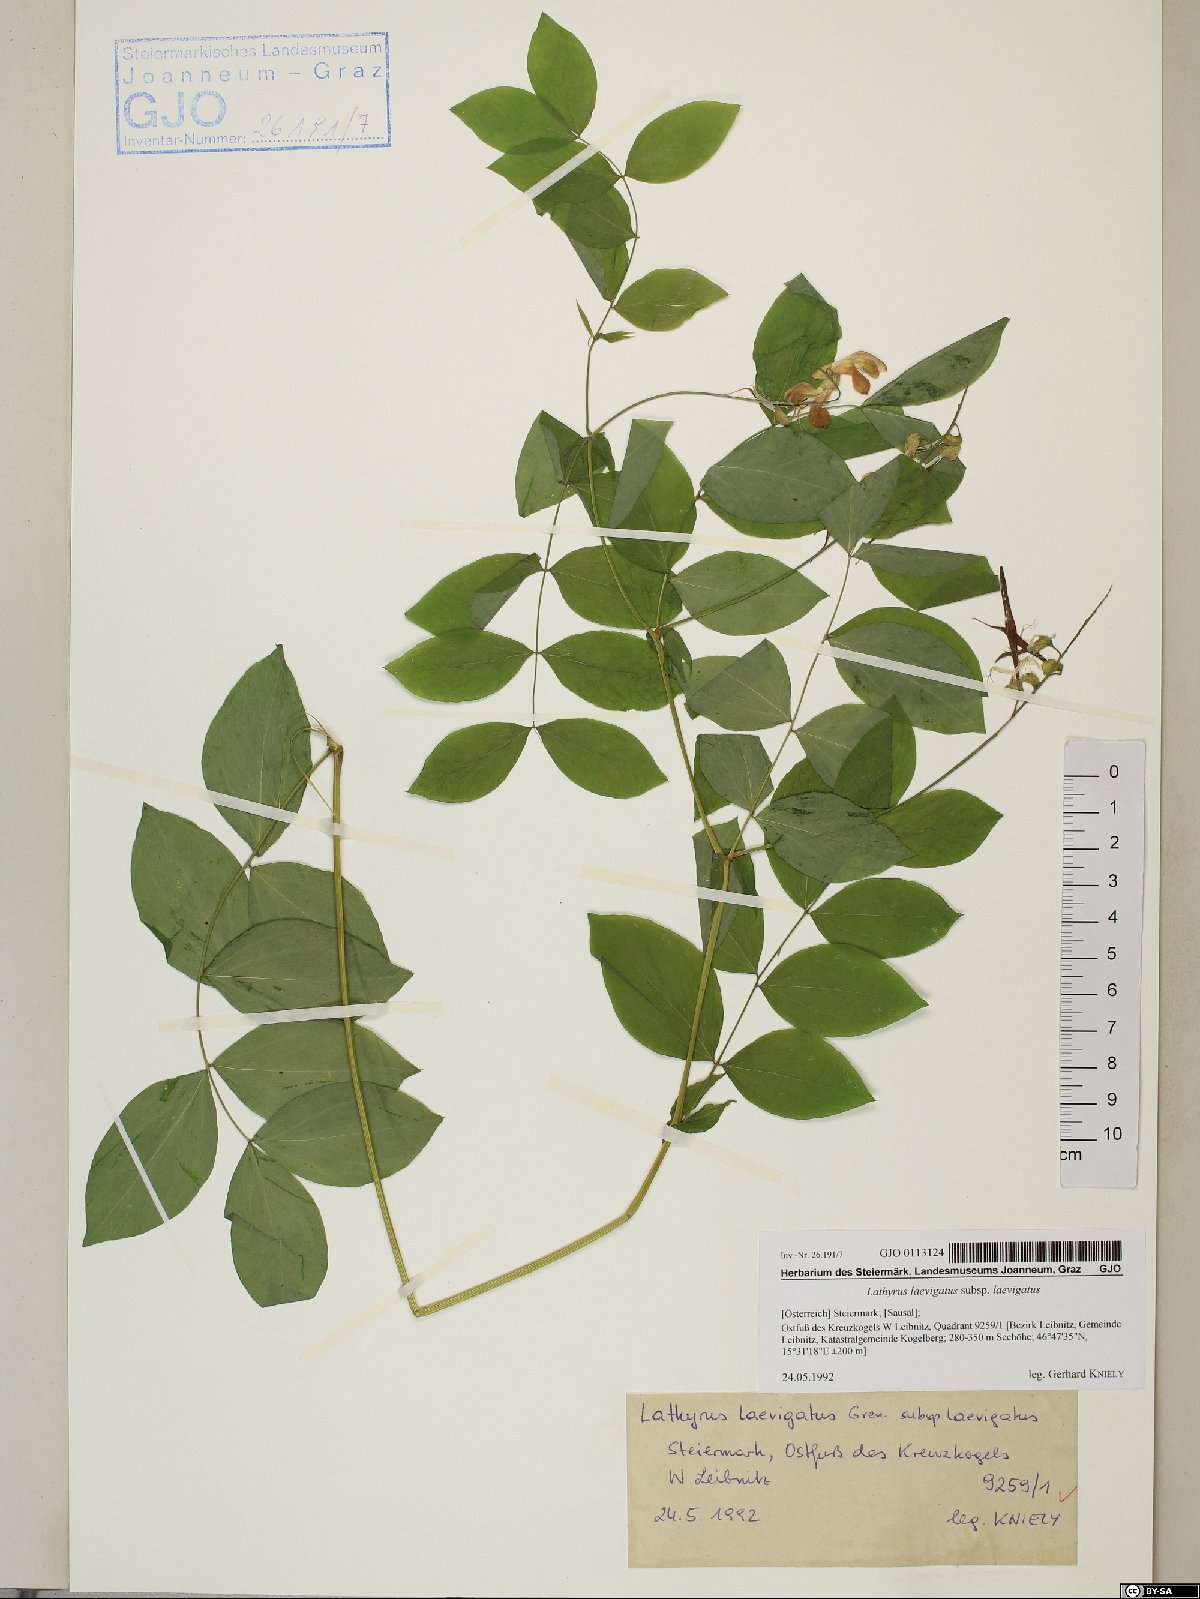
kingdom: Plantae
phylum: Tracheophyta
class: Magnoliopsida
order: Fabales
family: Fabaceae
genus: Lathyrus
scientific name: Lathyrus laevigatus
